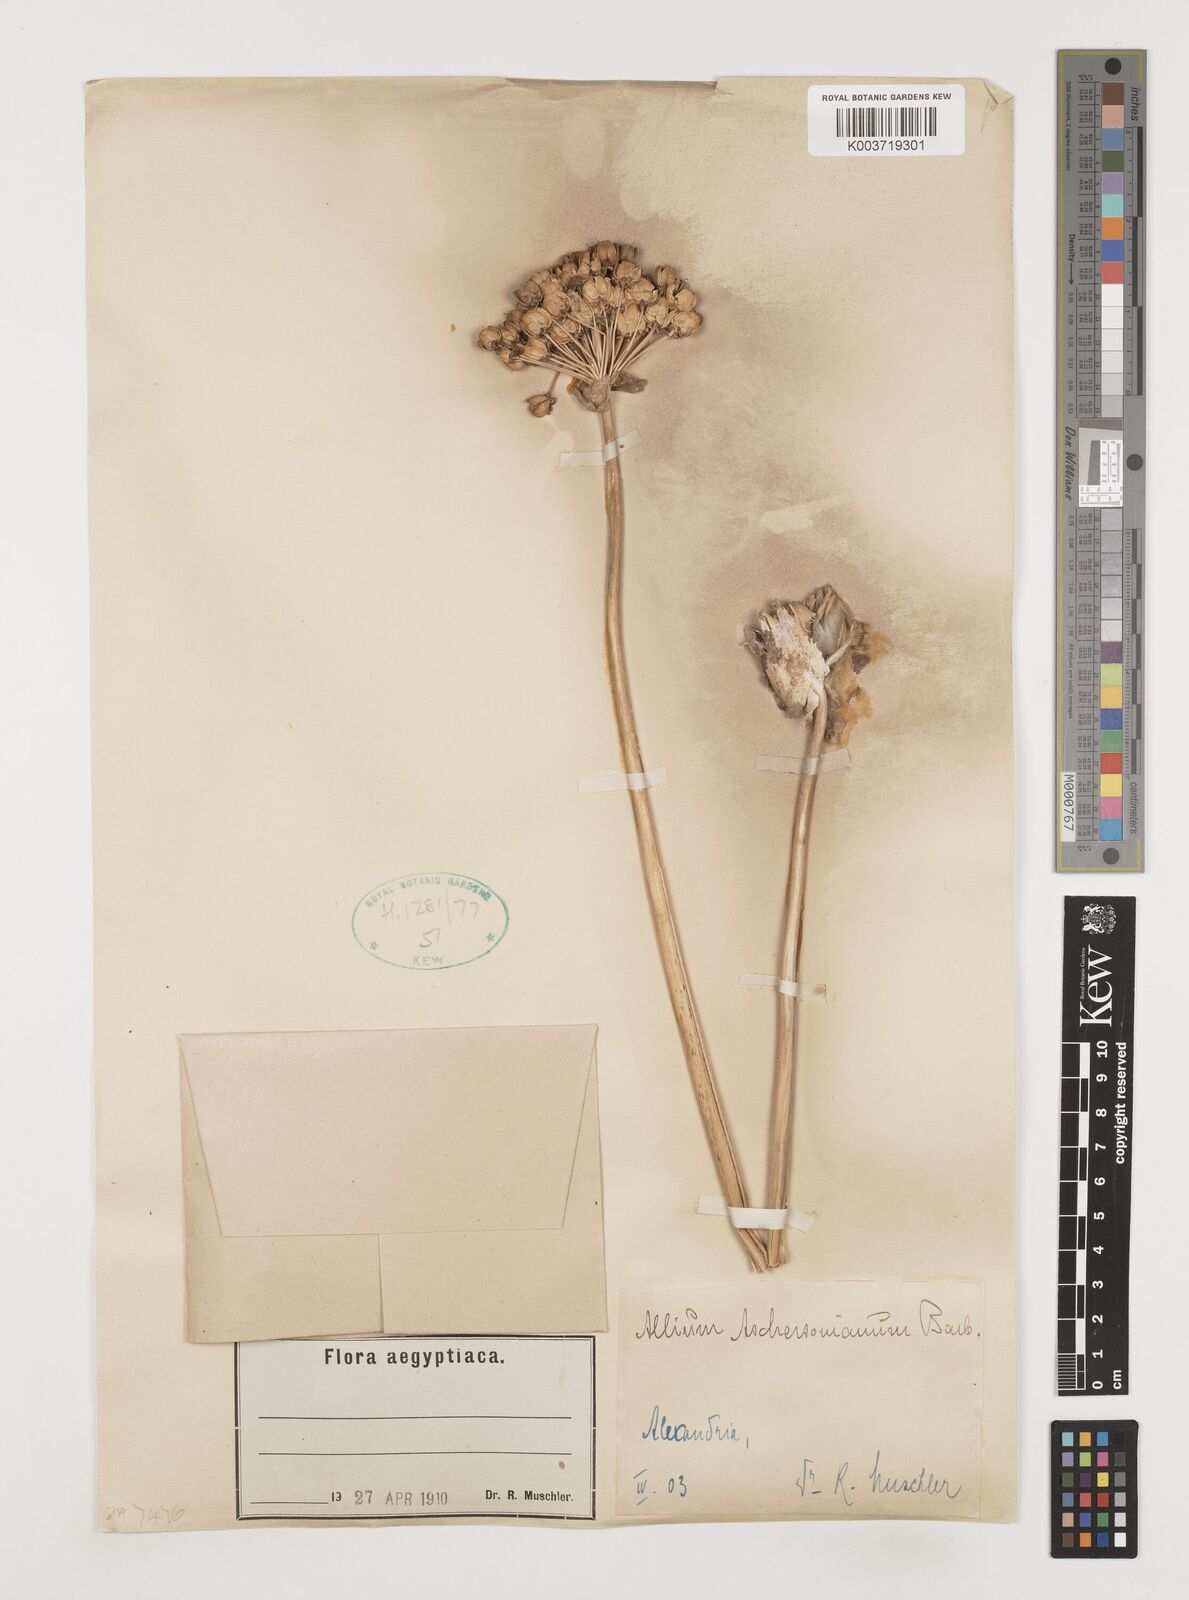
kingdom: Plantae
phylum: Tracheophyta
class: Liliopsida
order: Asparagales
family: Amaryllidaceae
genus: Allium
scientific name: Allium aschersonianum
